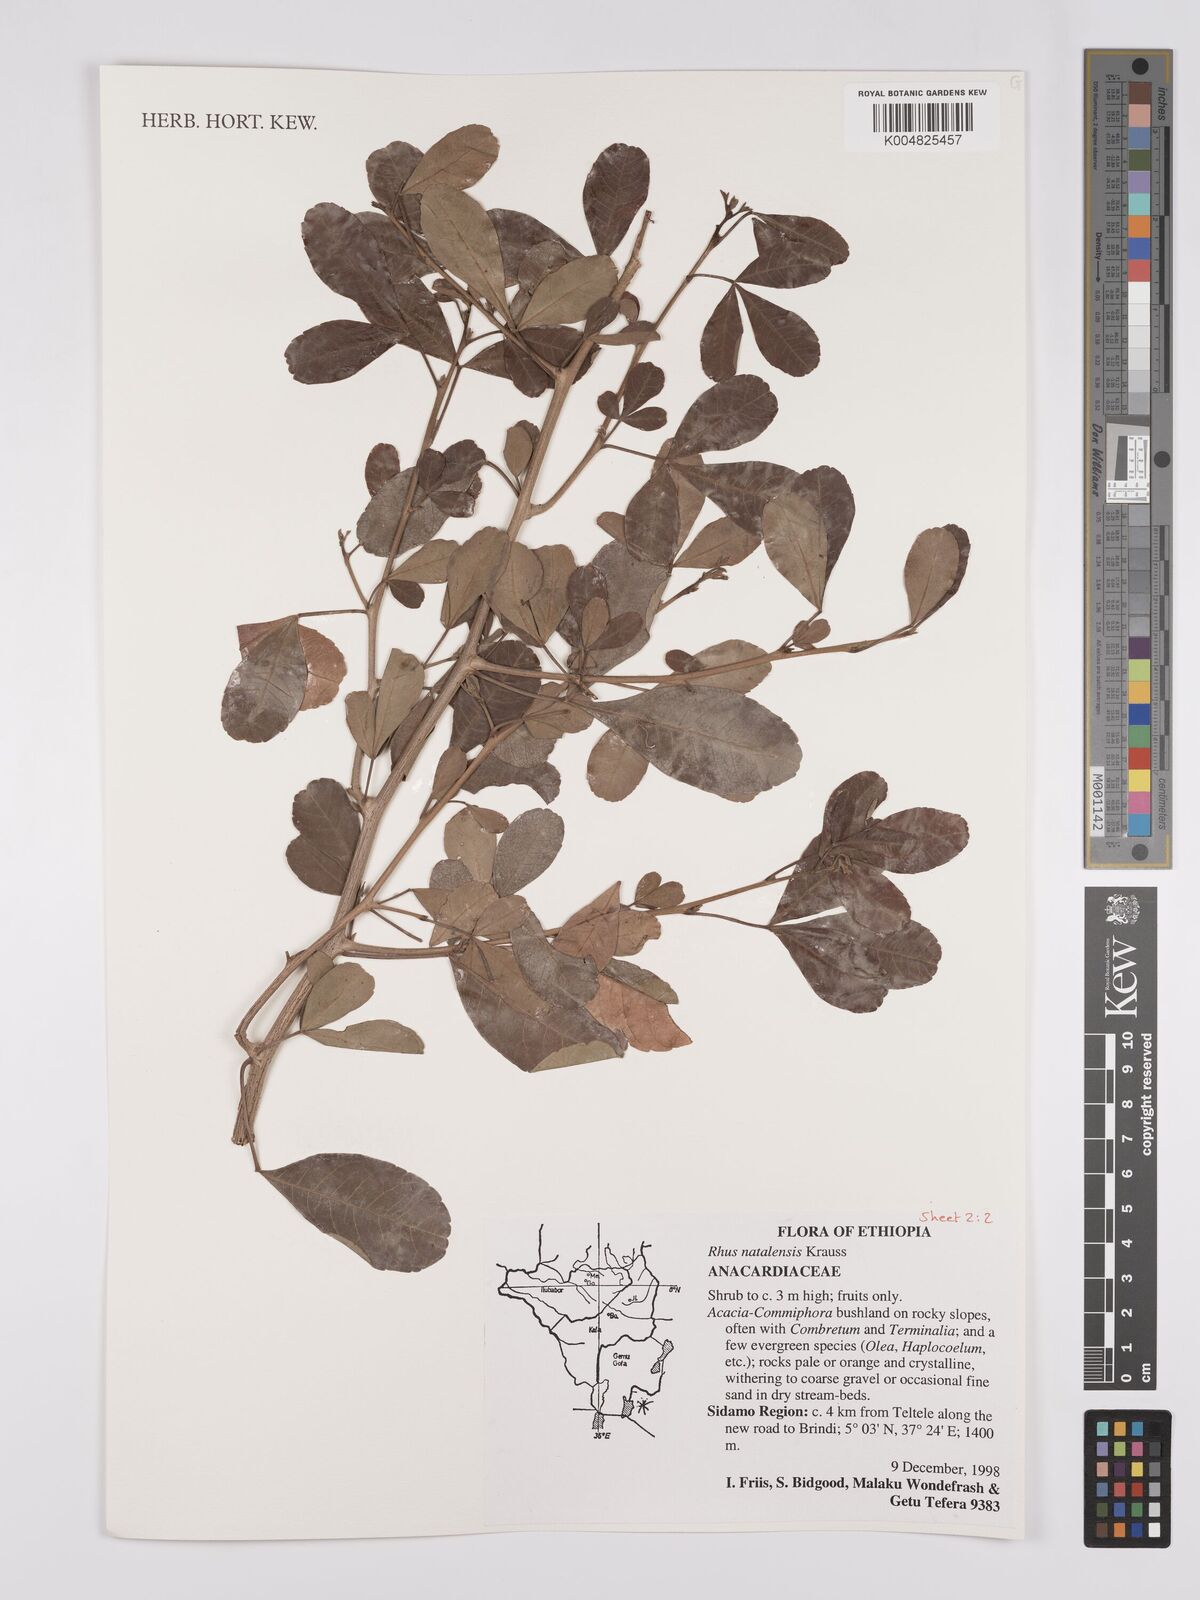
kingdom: Plantae
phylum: Tracheophyta
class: Magnoliopsida
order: Sapindales
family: Anacardiaceae
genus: Searsia
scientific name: Searsia natalensis
